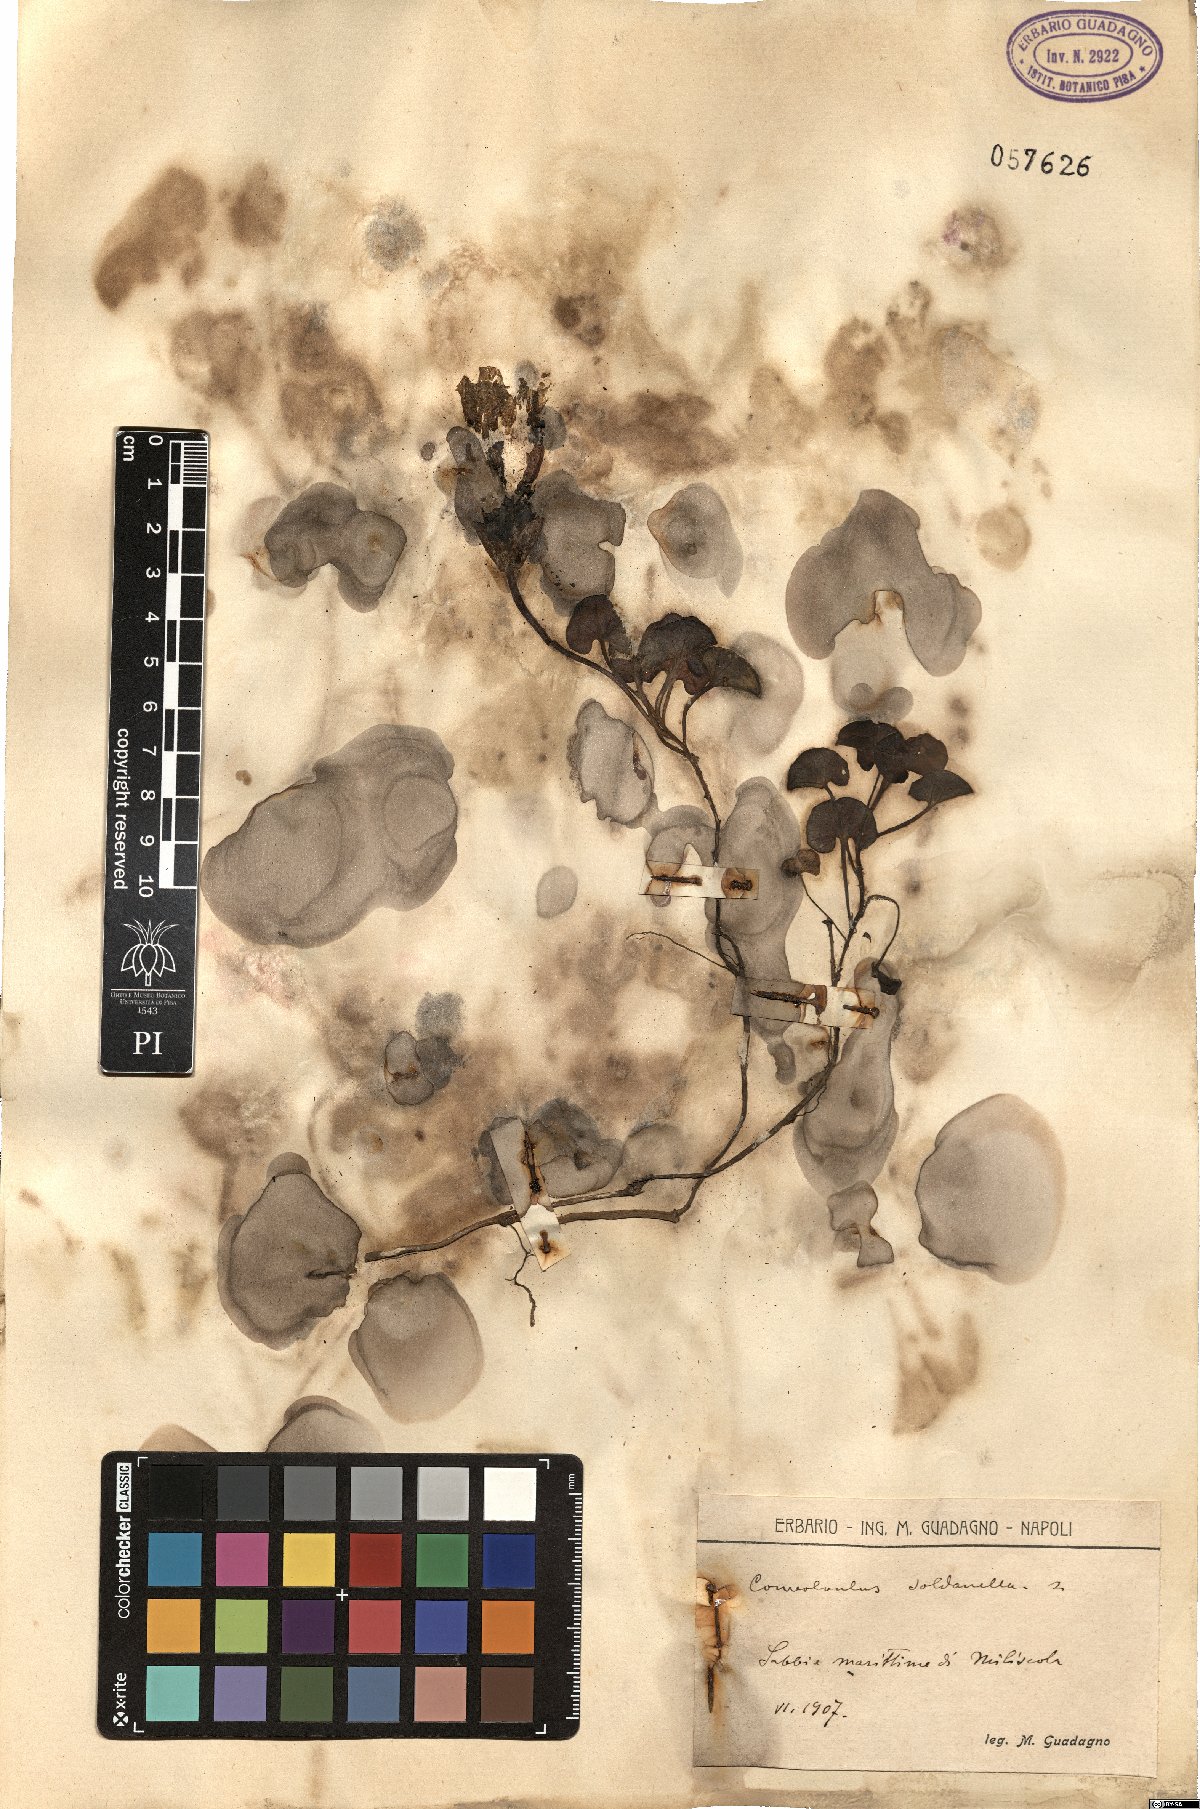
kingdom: Plantae
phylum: Tracheophyta
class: Magnoliopsida
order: Solanales
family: Convolvulaceae
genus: Calystegia
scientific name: Calystegia soldanella
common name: Sea bindweed
